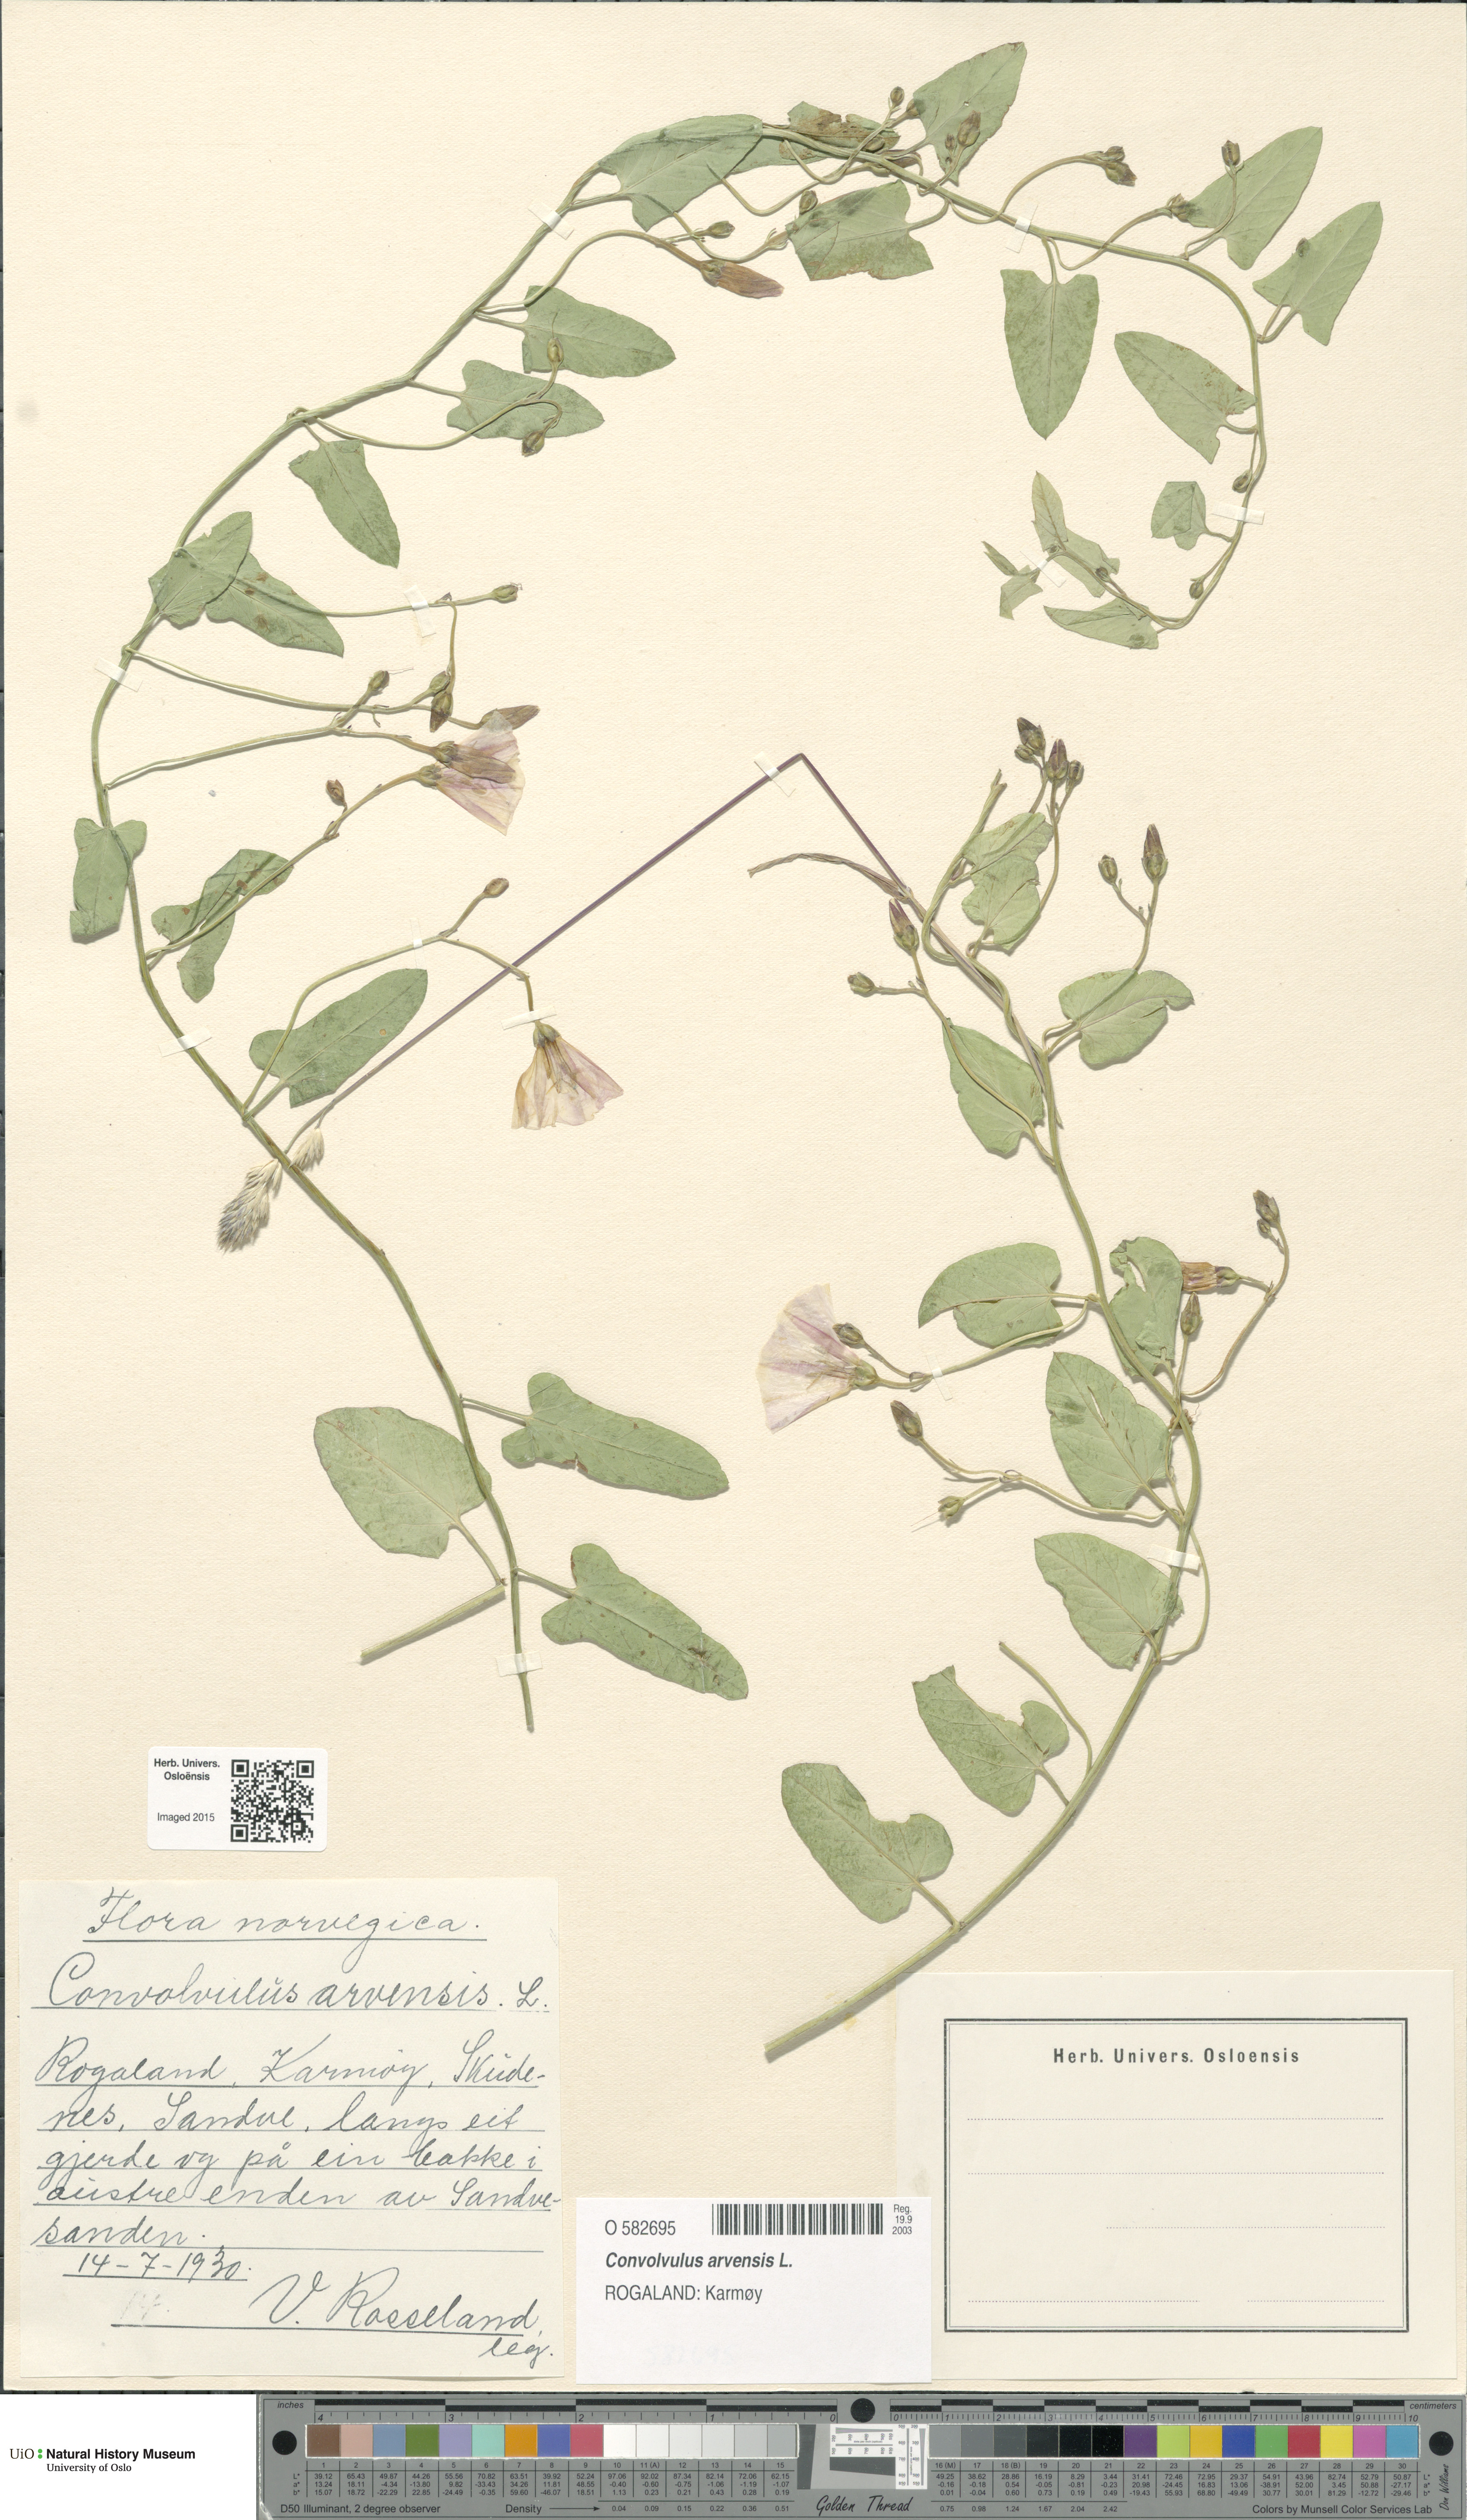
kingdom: Plantae
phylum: Tracheophyta
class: Magnoliopsida
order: Solanales
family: Convolvulaceae
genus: Convolvulus
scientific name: Convolvulus arvensis
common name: Field bindweed
